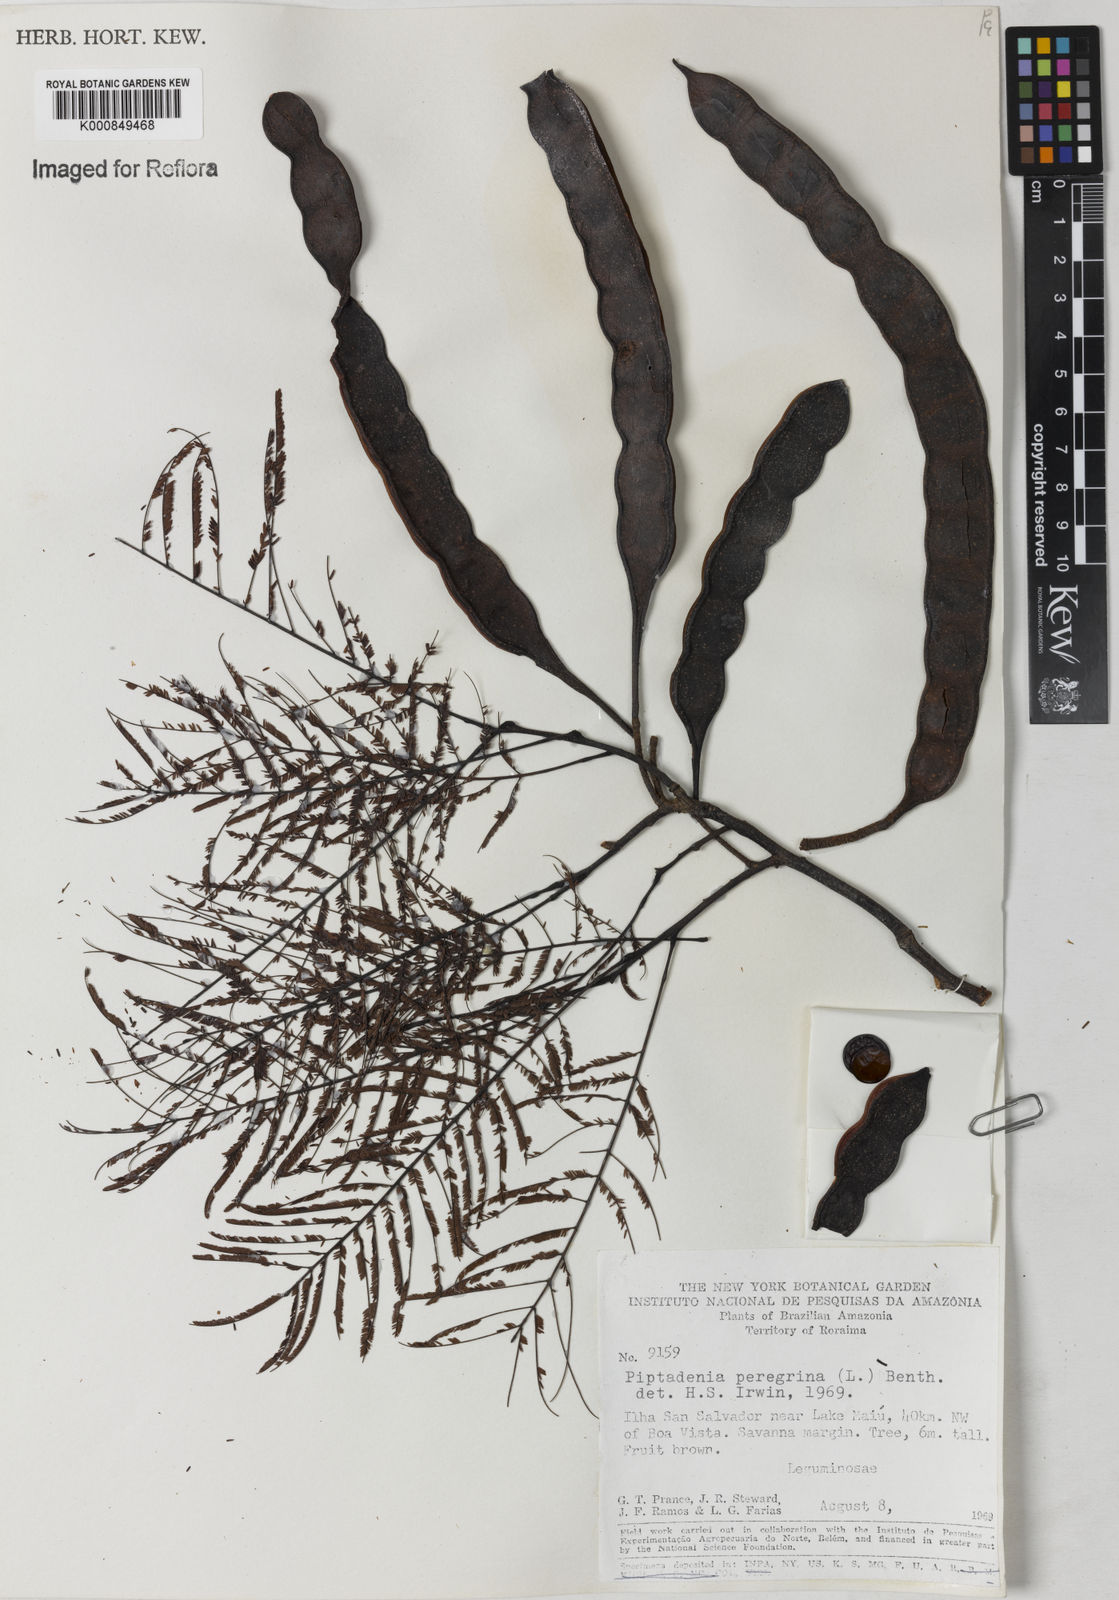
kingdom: Plantae
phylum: Tracheophyta
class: Magnoliopsida
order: Fabales
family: Fabaceae
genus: Anadenanthera
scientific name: Anadenanthera peregrina
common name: Cohoba
